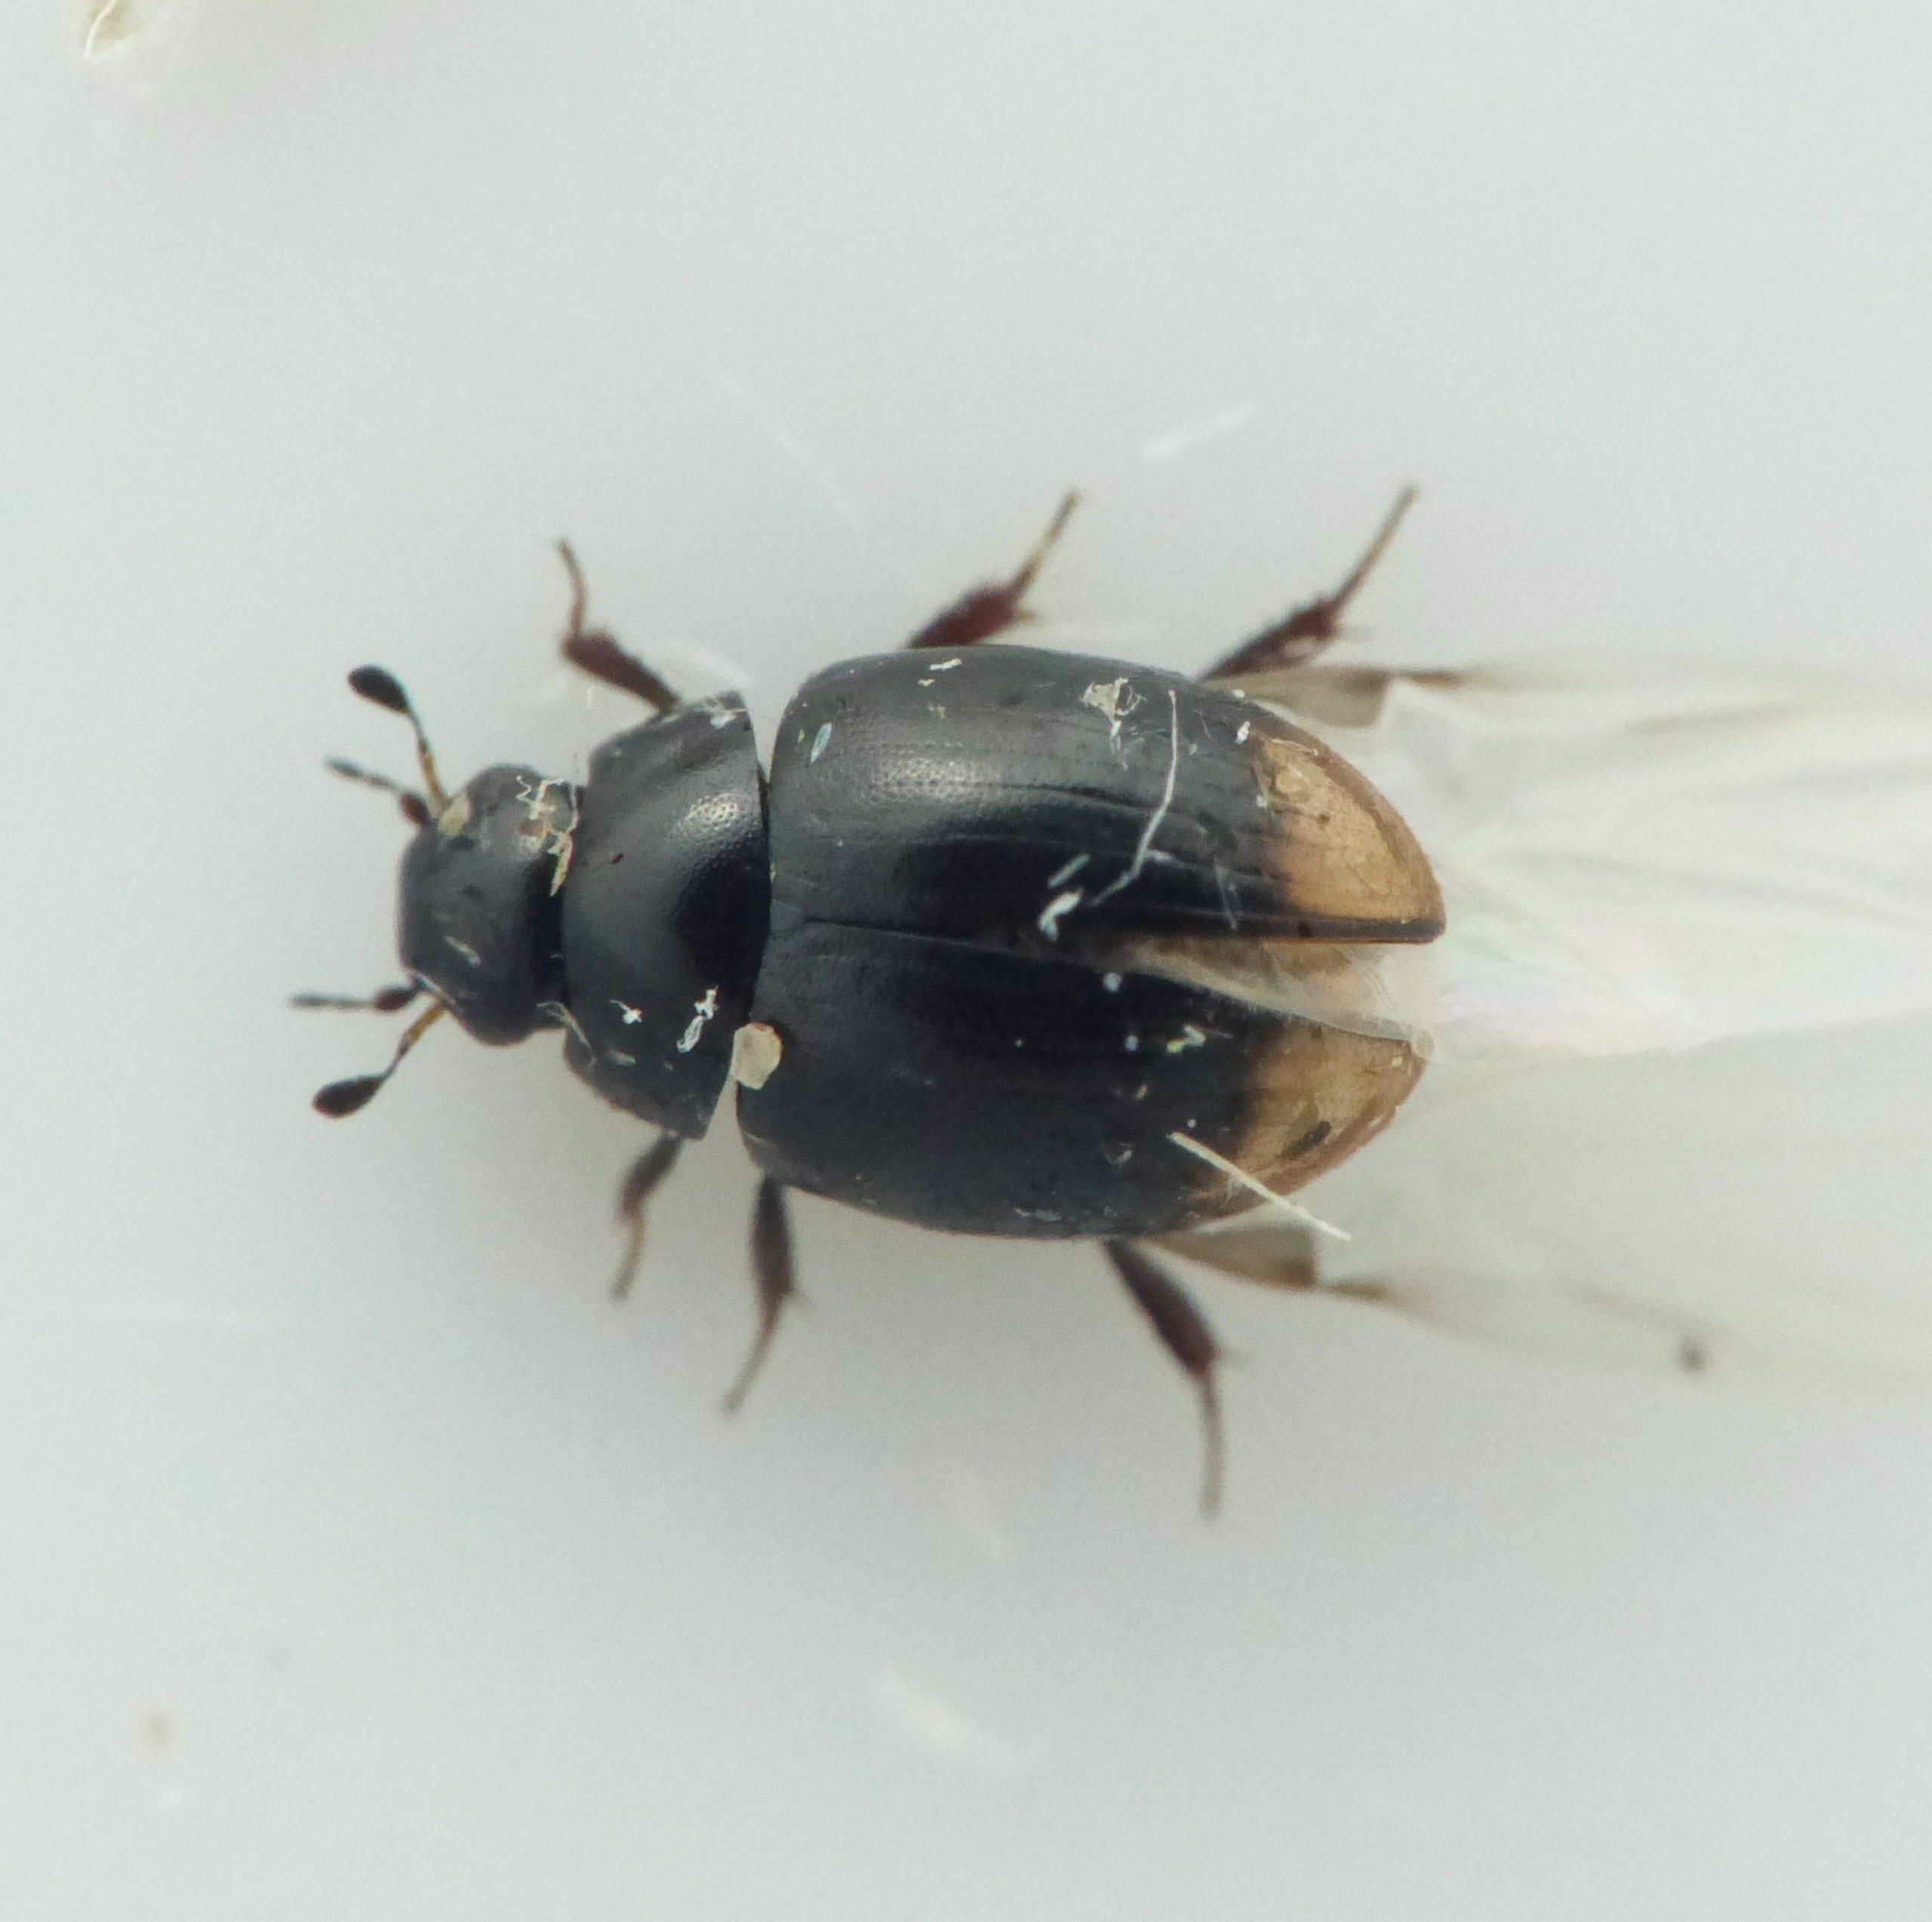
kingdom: Animalia
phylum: Arthropoda
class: Insecta
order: Coleoptera
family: Hydrophilidae
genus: Cercyon
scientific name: Cercyon bifenestratus
